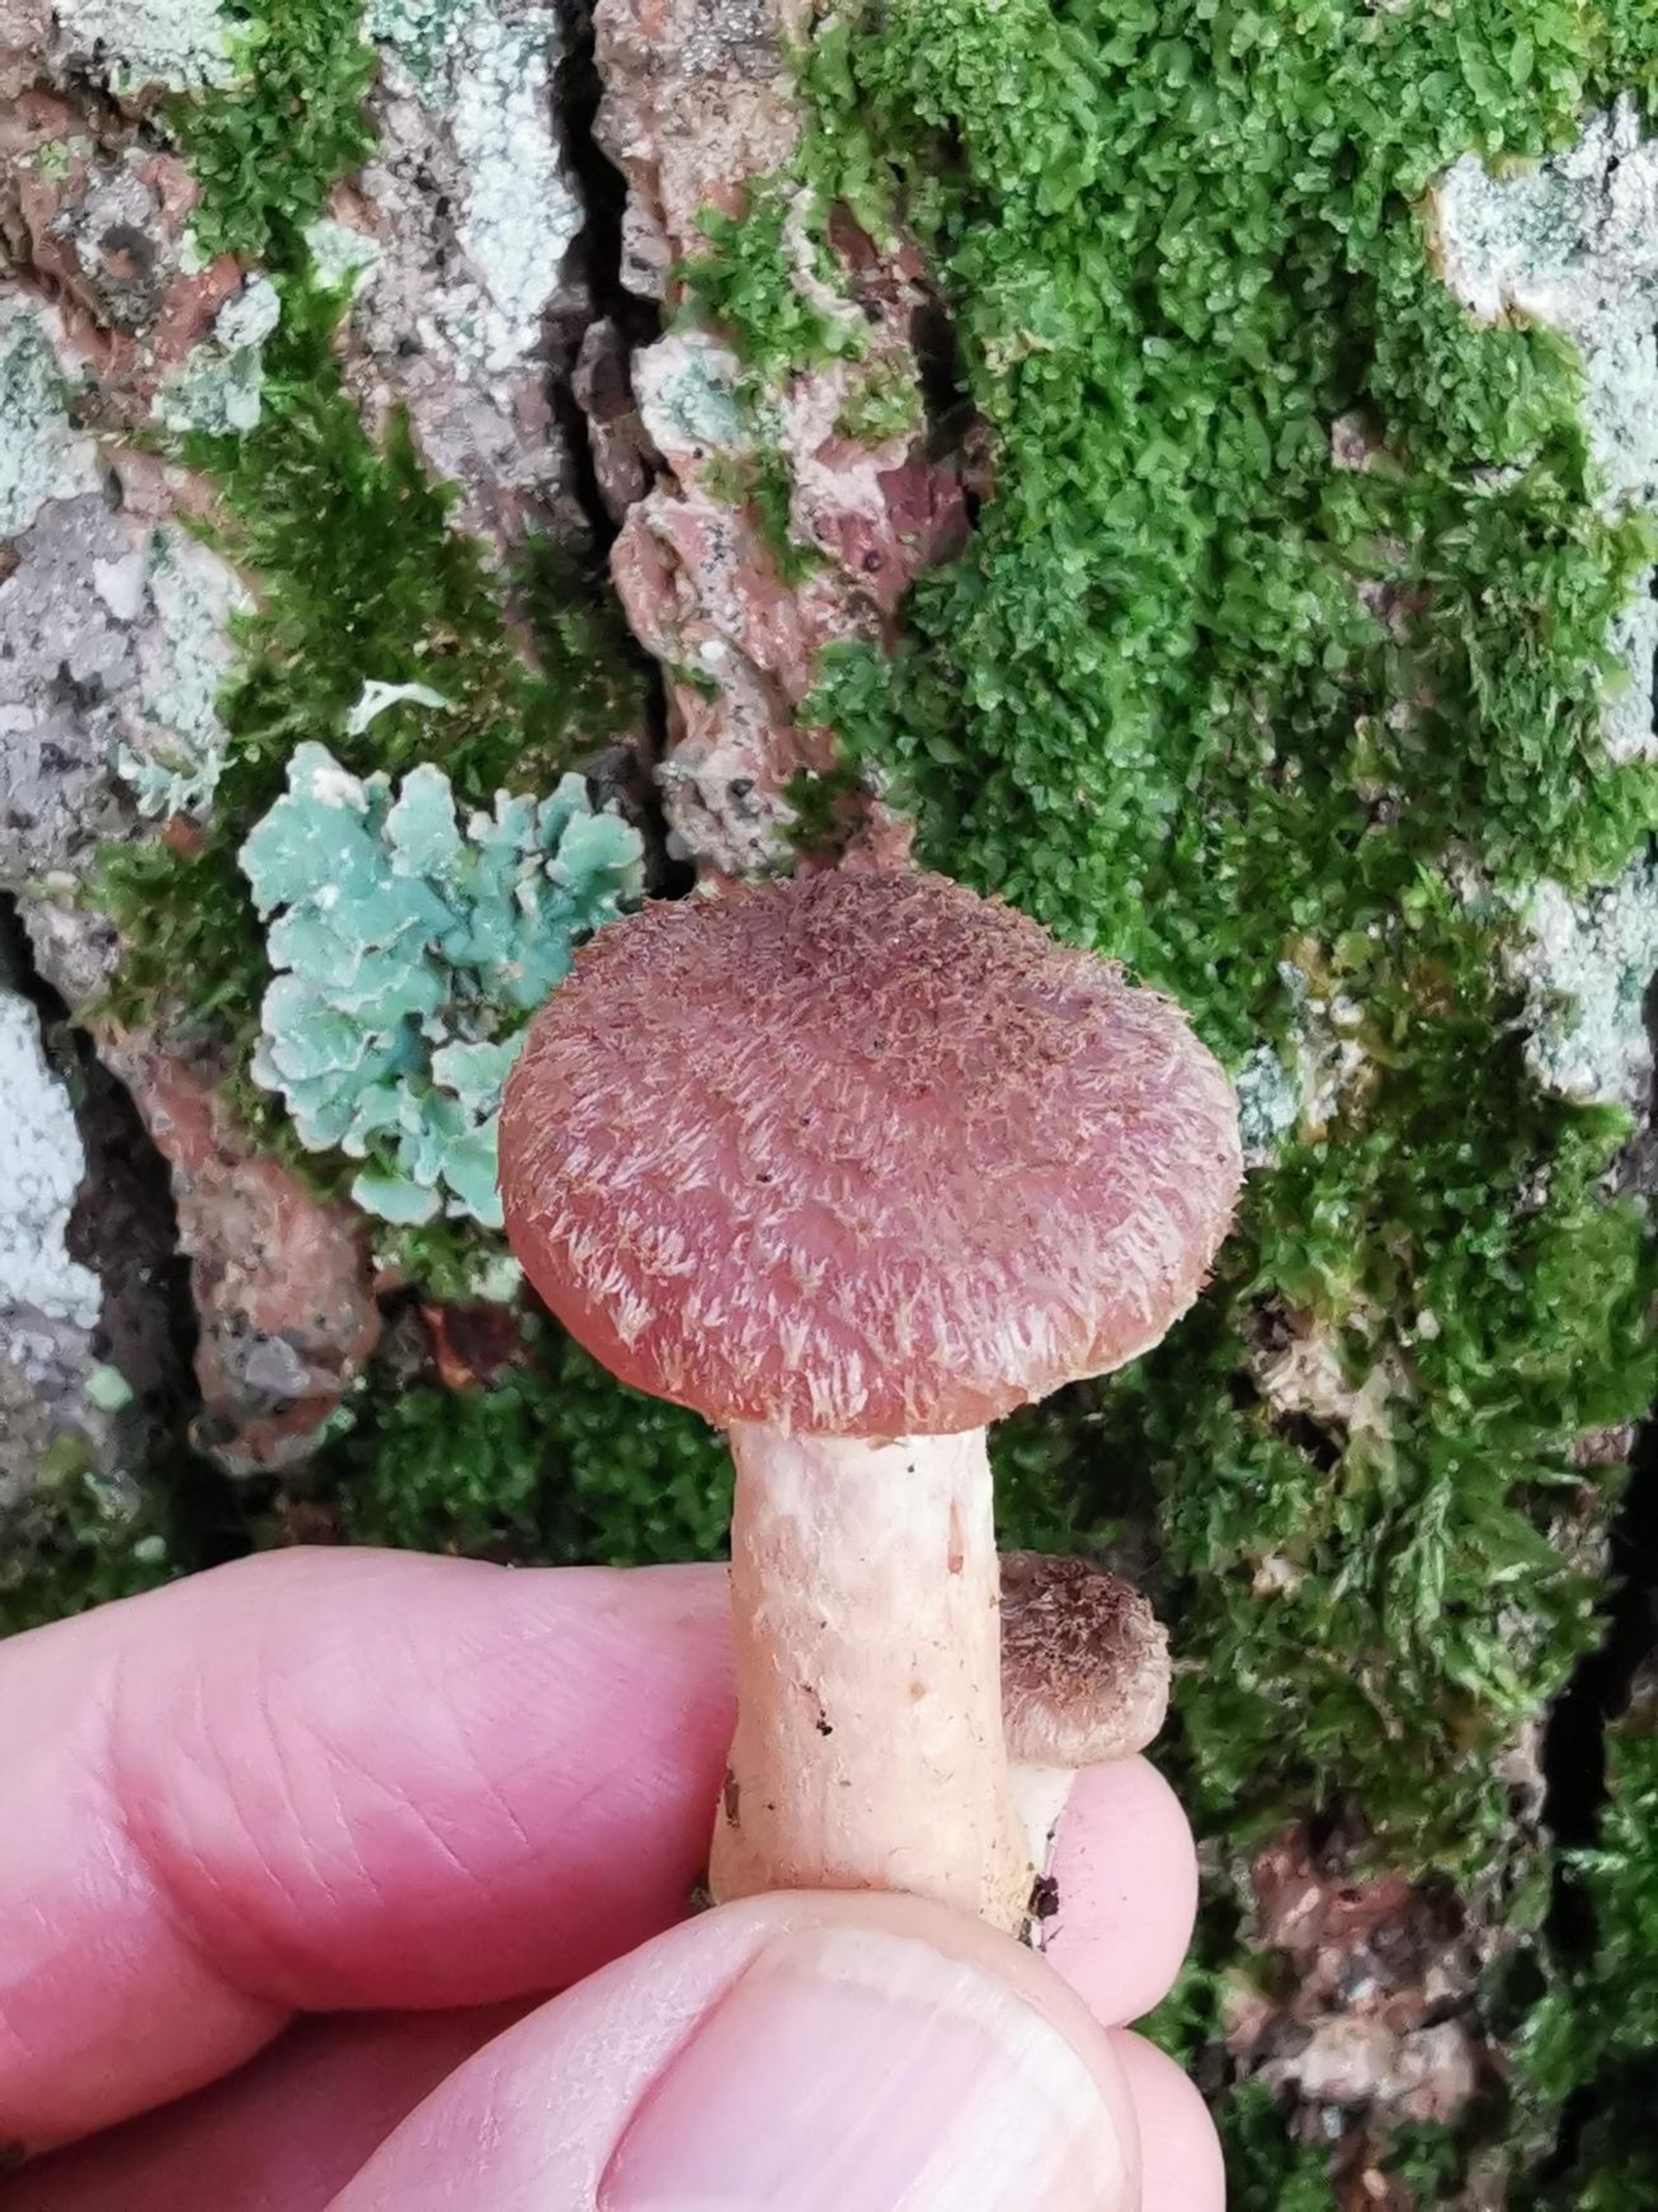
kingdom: Fungi
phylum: Basidiomycota
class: Agaricomycetes
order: Agaricales
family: Physalacriaceae
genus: Armillaria
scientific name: Armillaria lutea
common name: Køllestokket honningsvamp
